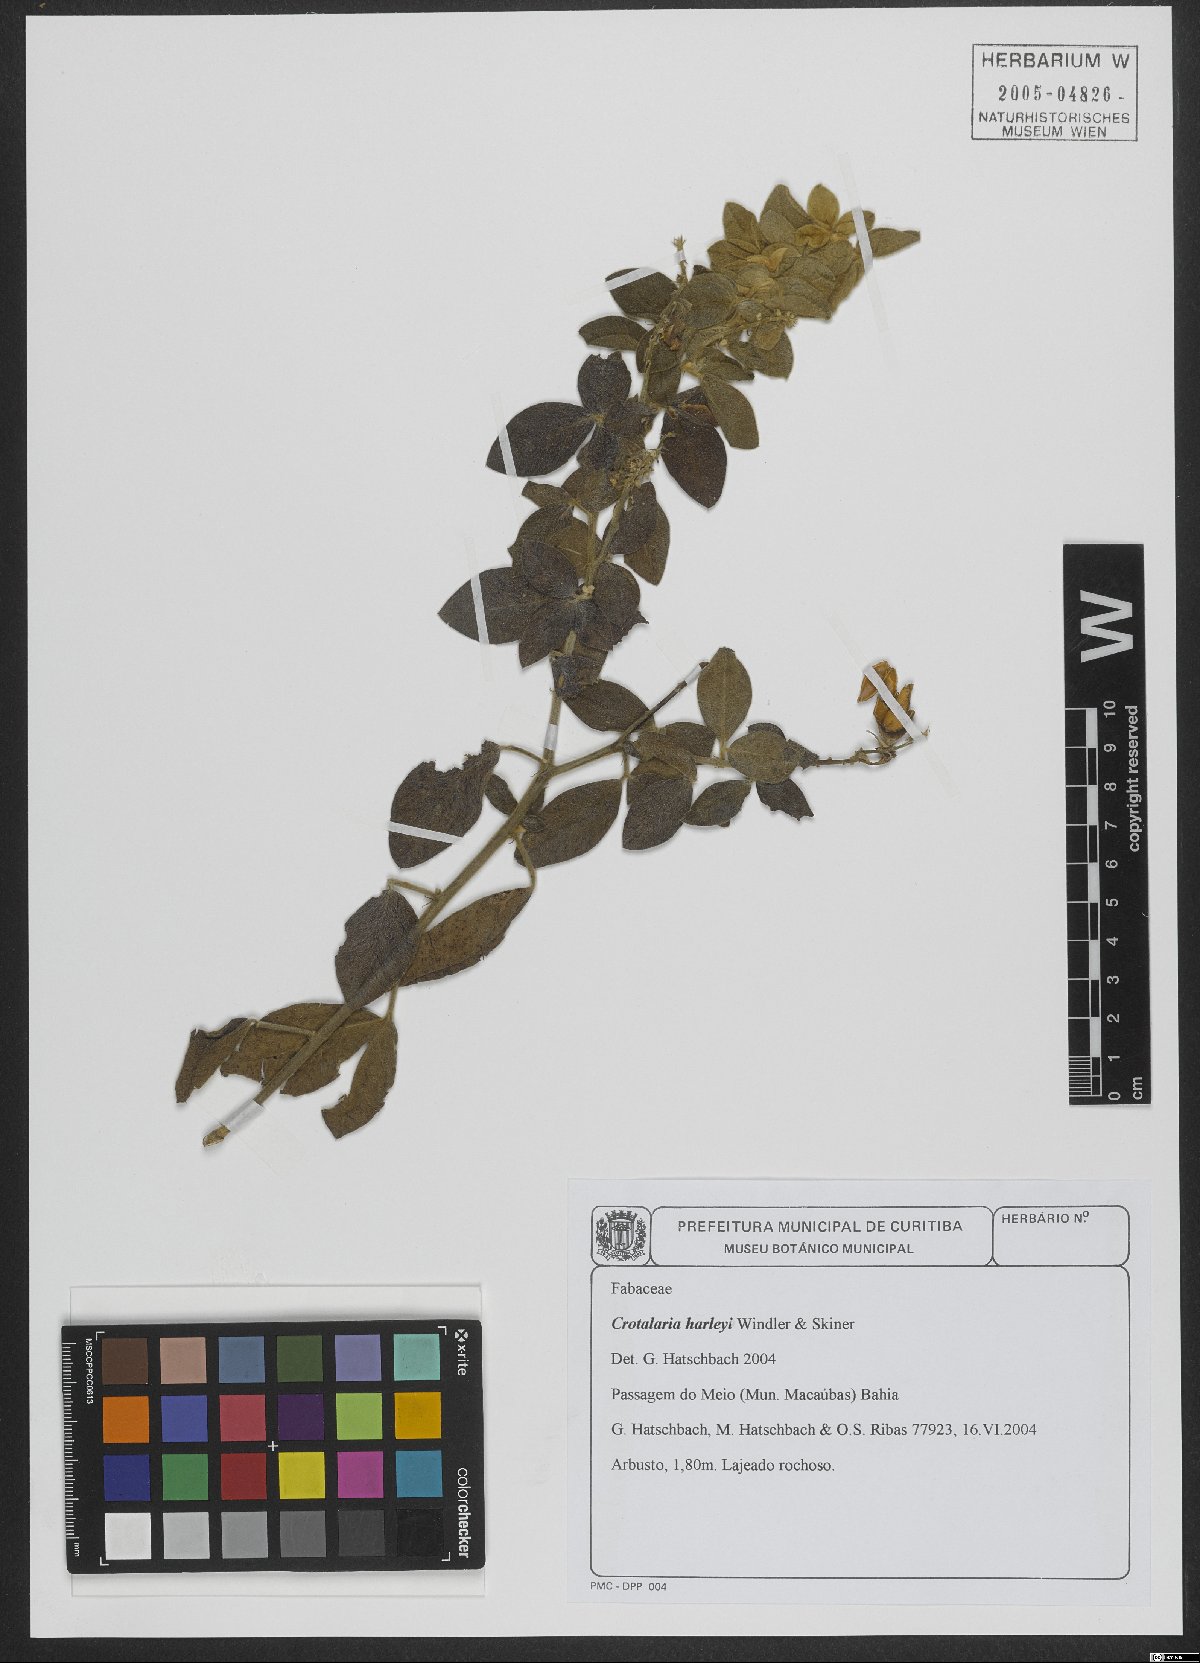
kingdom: Plantae
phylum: Tracheophyta
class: Magnoliopsida
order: Fabales
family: Fabaceae
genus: Crotalaria
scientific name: Crotalaria harleyi
